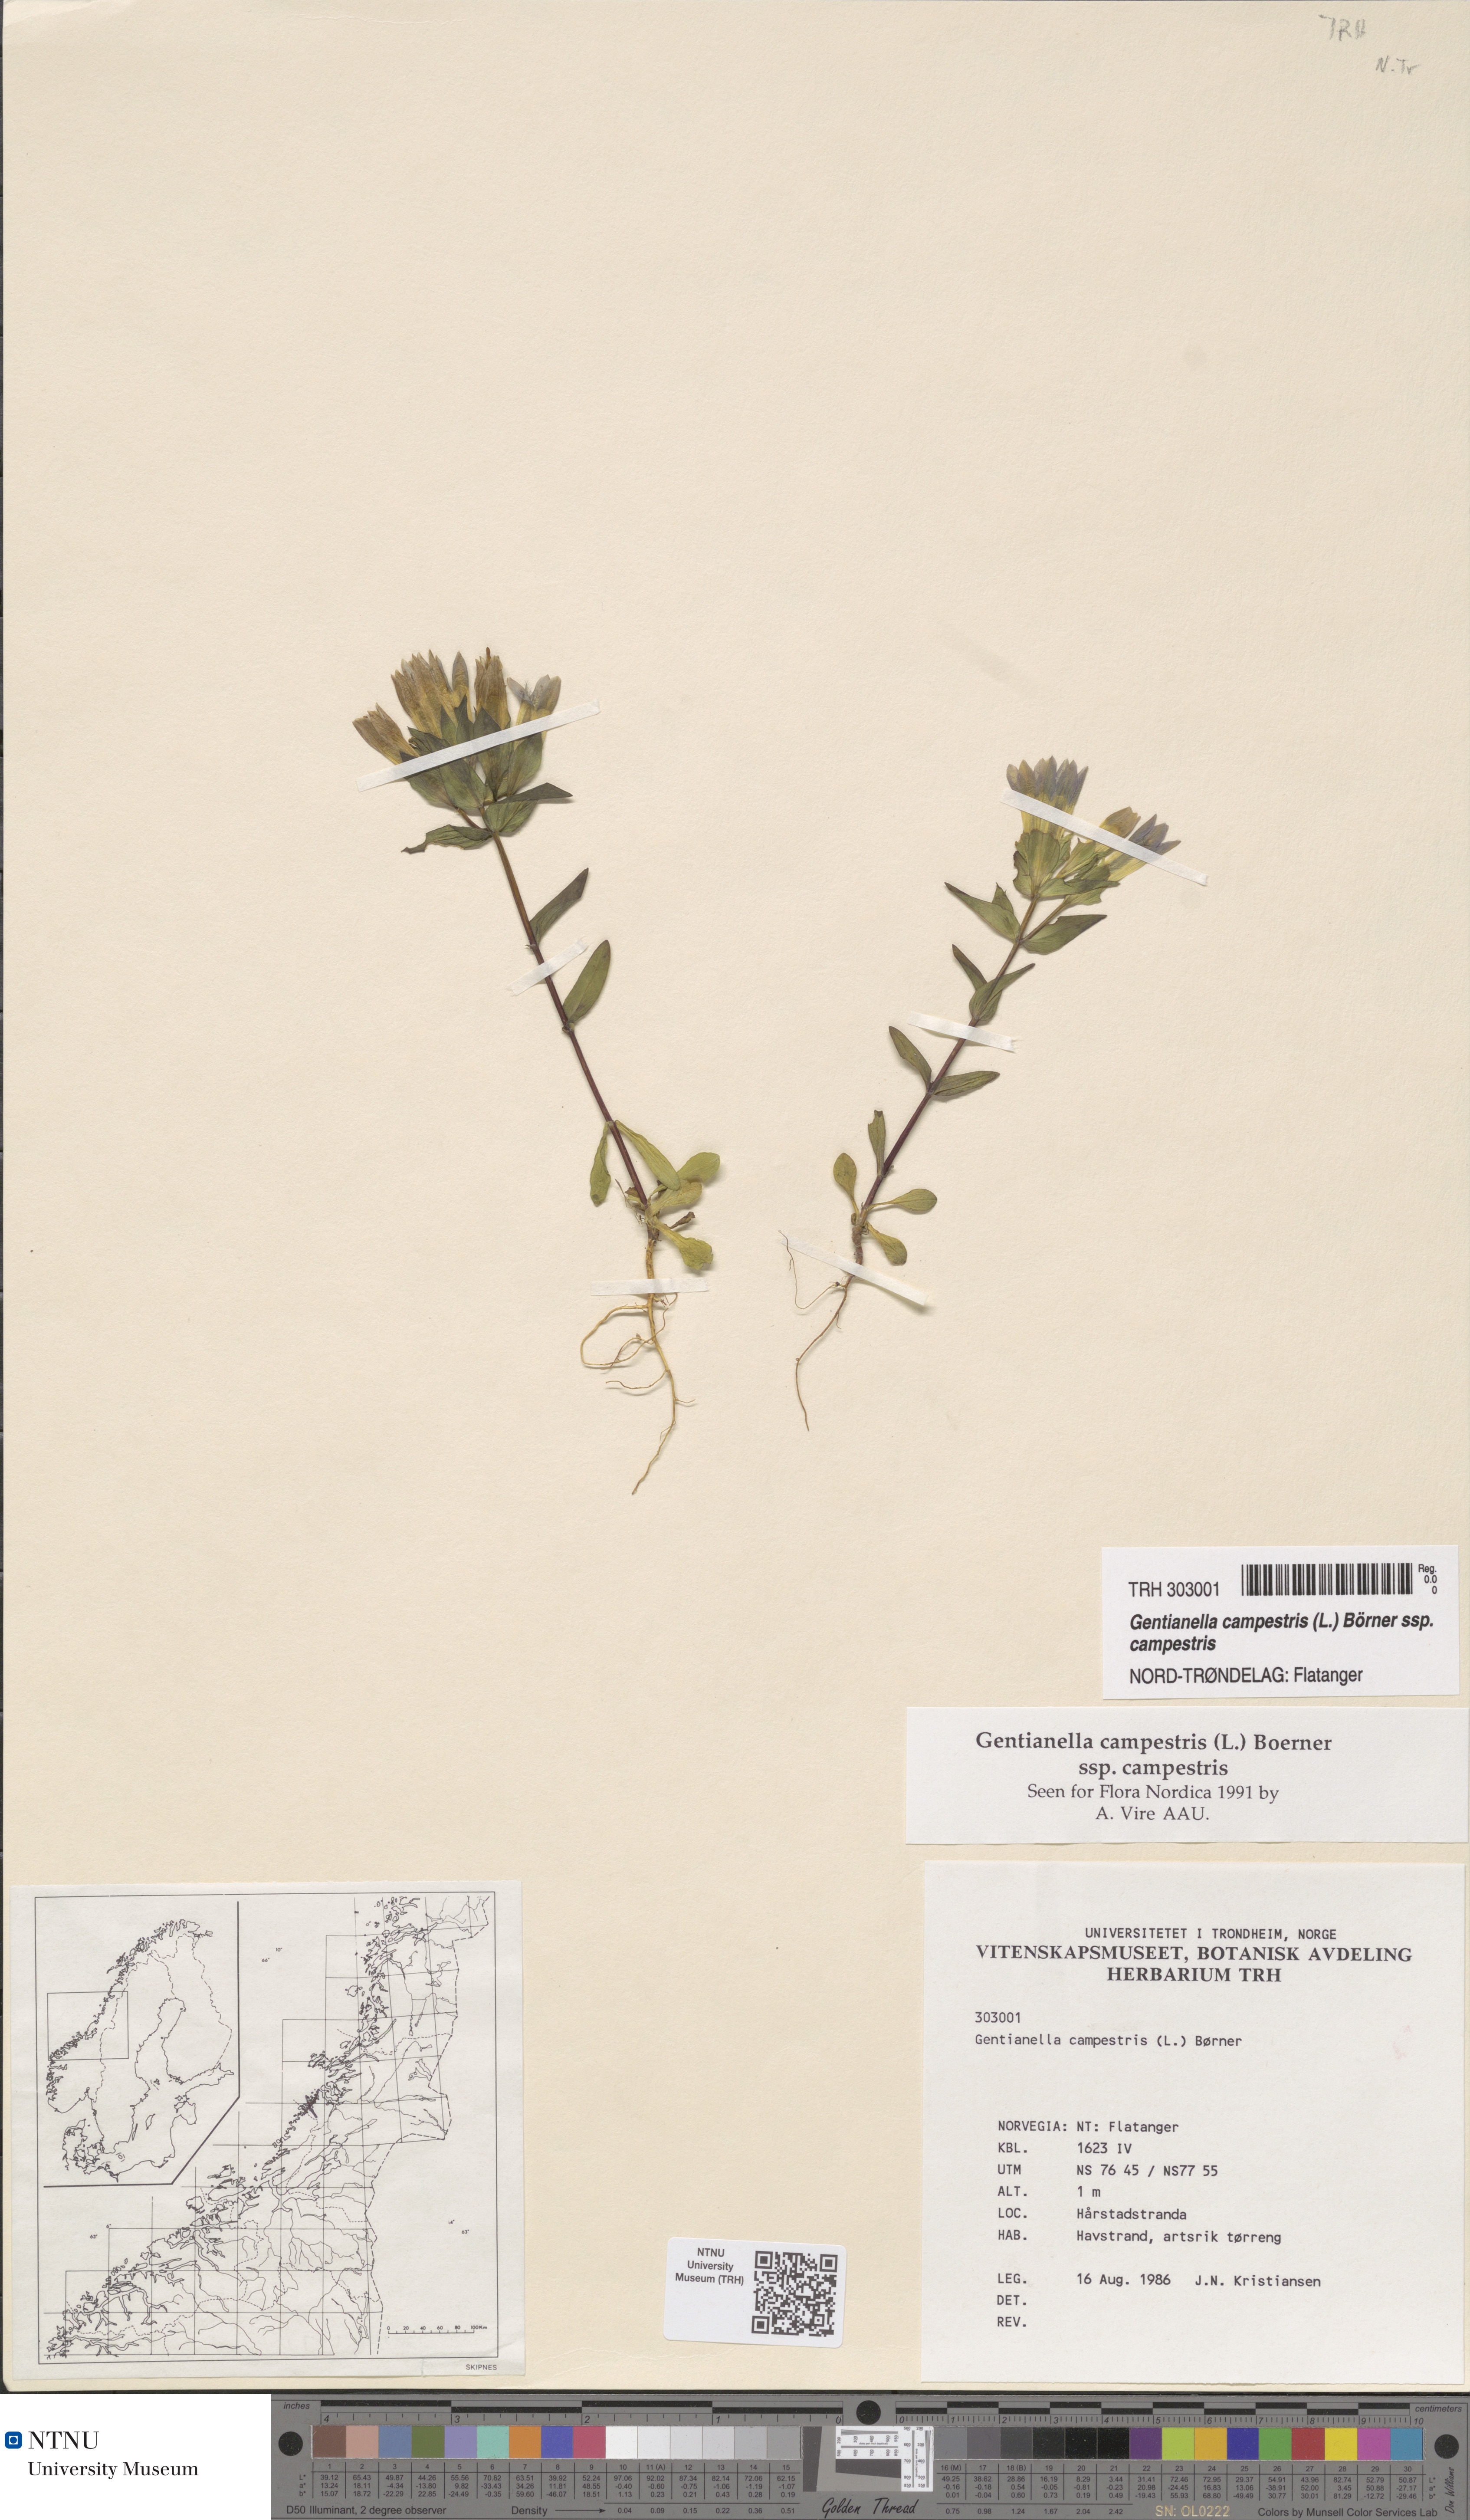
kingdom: Plantae
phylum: Tracheophyta
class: Magnoliopsida
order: Gentianales
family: Gentianaceae
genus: Gentianella
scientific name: Gentianella campestris
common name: Field gentian
